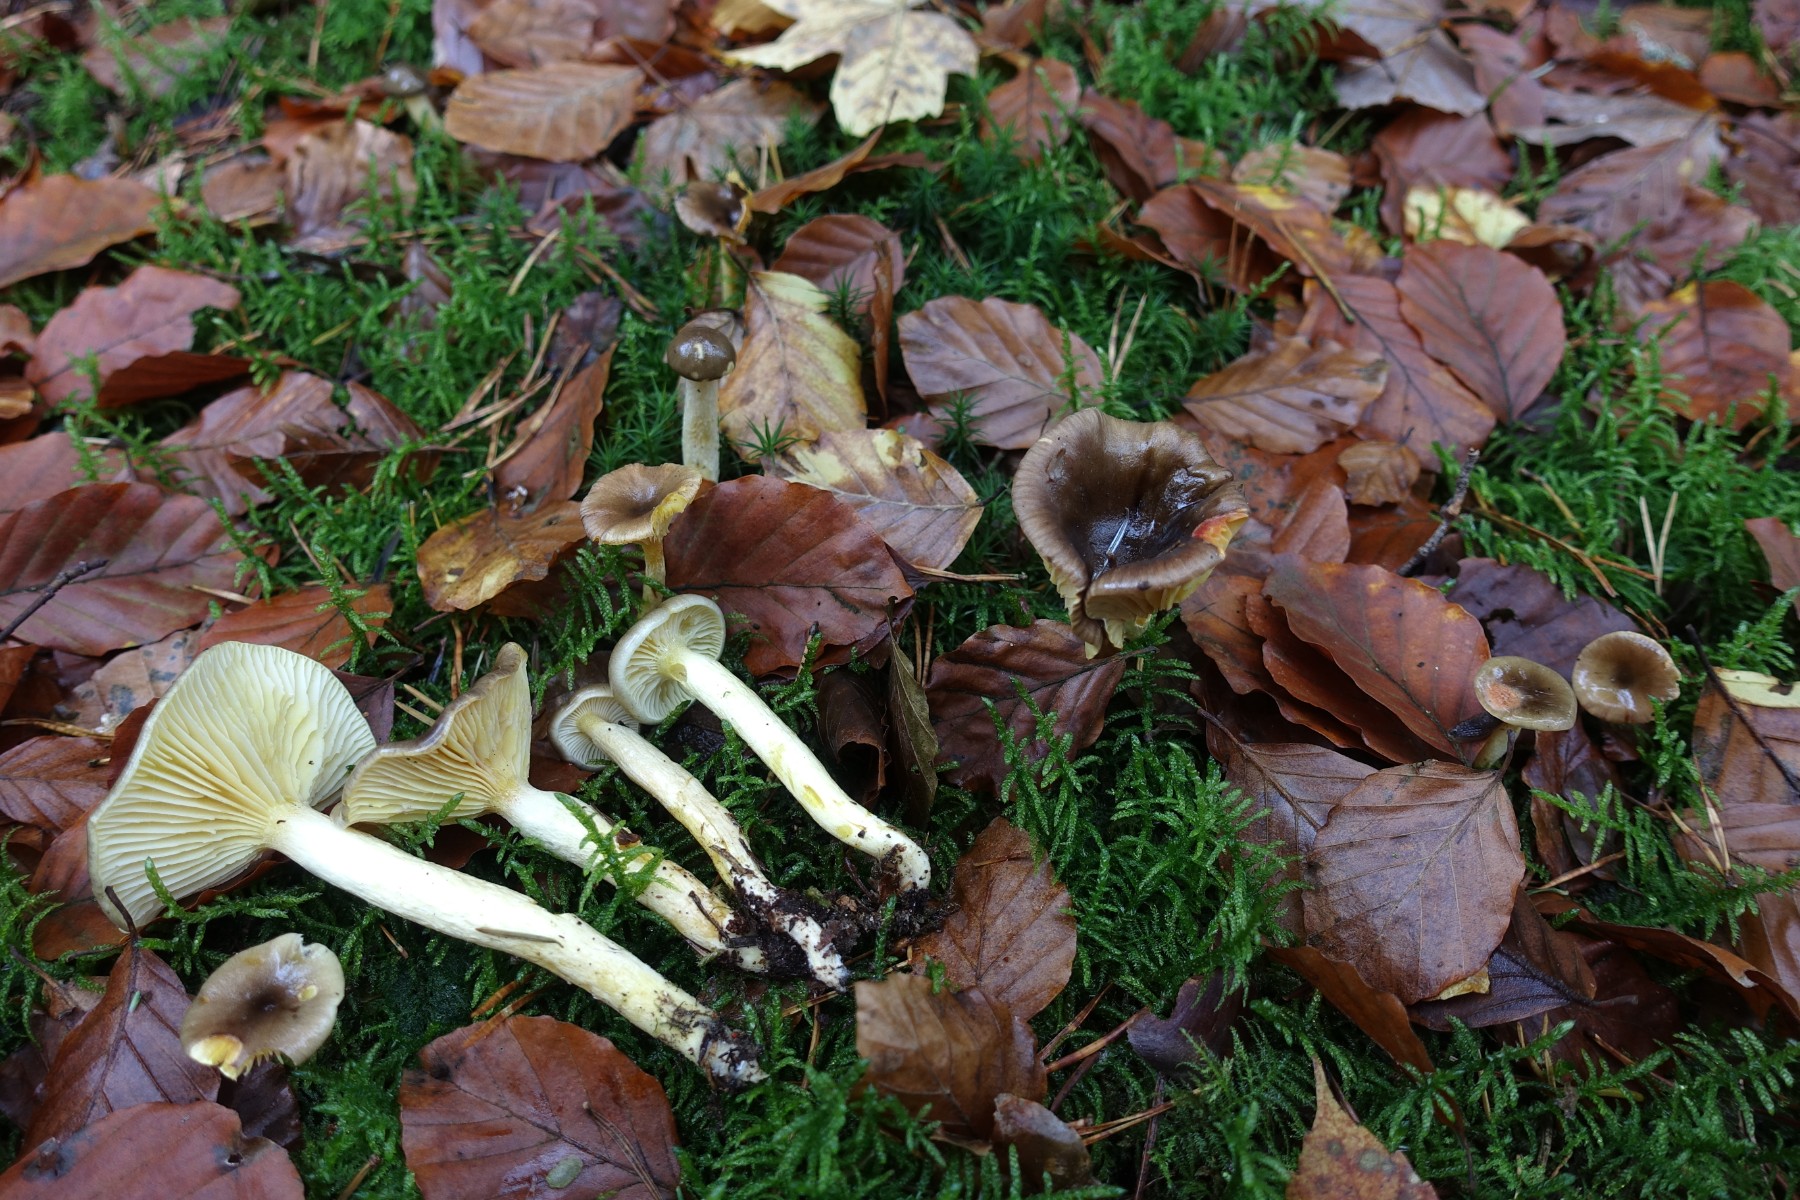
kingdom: Fungi
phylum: Basidiomycota
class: Agaricomycetes
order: Agaricales
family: Hygrophoraceae
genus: Hygrophorus
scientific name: Hygrophorus hypothejus
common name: frost-sneglehat
